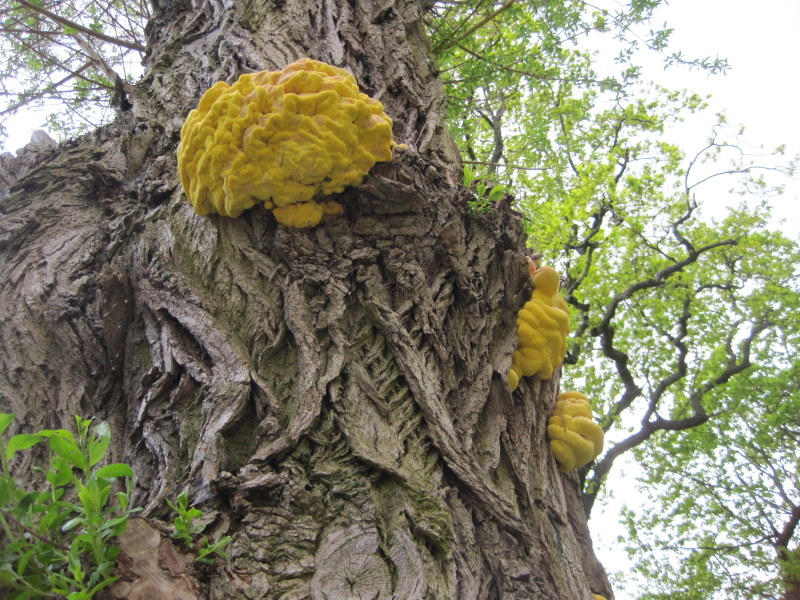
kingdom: Fungi
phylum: Basidiomycota
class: Agaricomycetes
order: Polyporales
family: Laetiporaceae
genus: Laetiporus
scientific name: Laetiporus sulphureus
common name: svovlporesvamp
